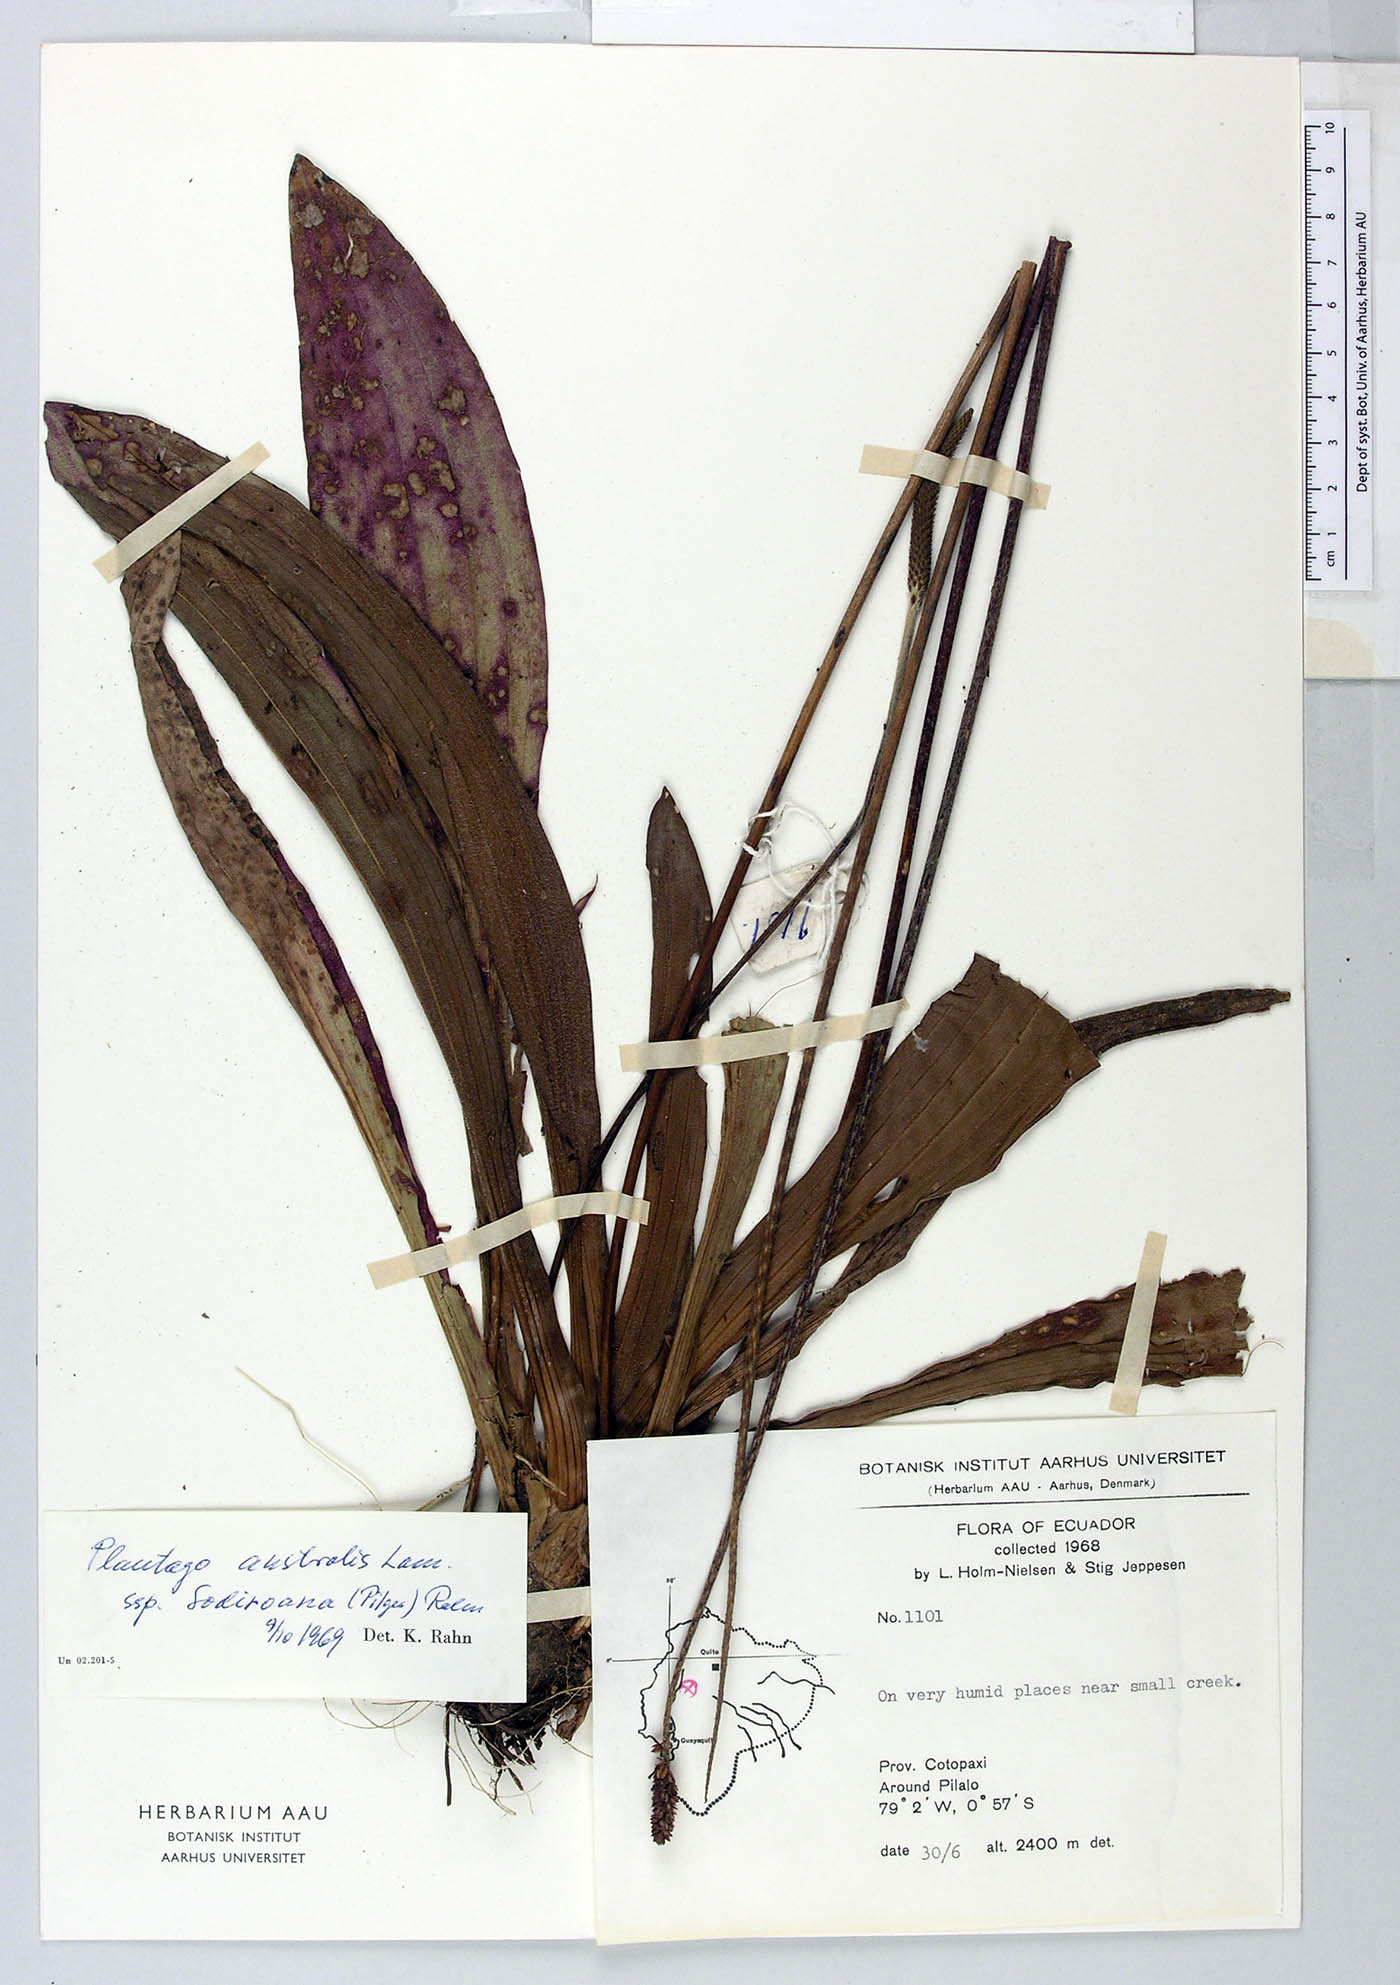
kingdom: Plantae
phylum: Tracheophyta
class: Magnoliopsida
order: Lamiales
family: Plantaginaceae
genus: Plantago
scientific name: Plantago australis
